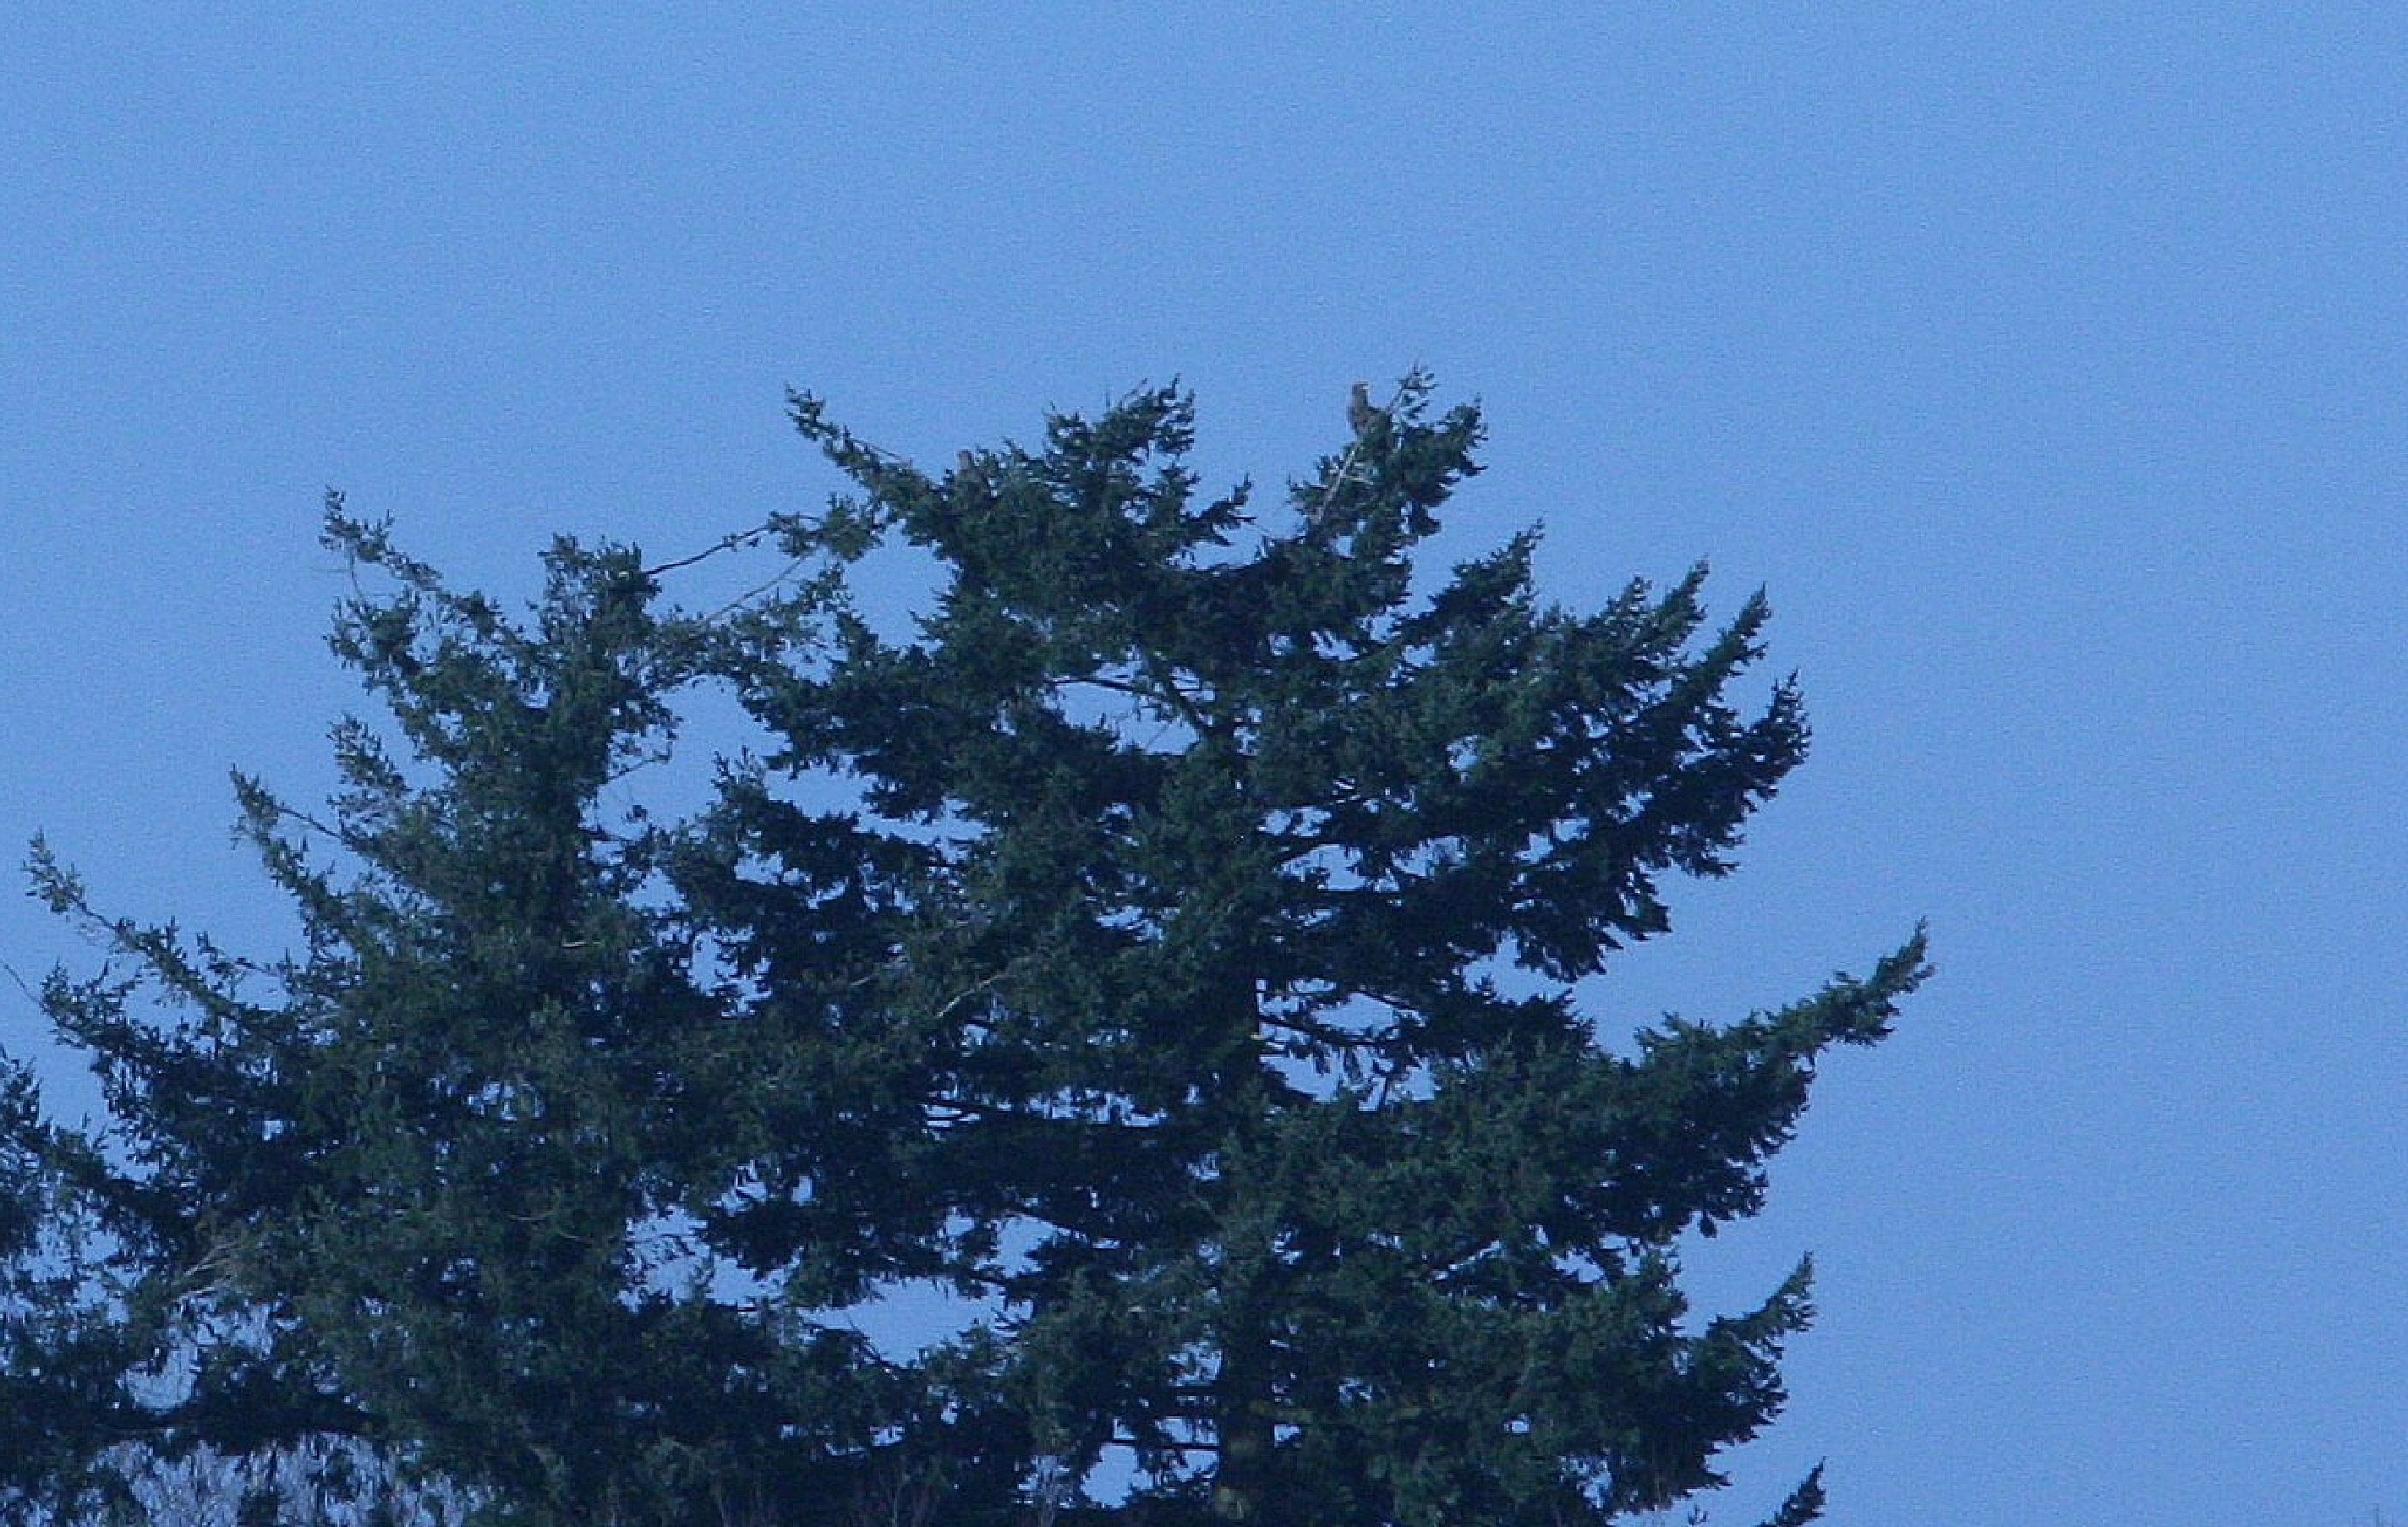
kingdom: Animalia
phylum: Chordata
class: Aves
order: Accipitriformes
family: Accipitridae
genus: Haliaeetus
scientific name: Haliaeetus albicilla
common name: Havørn
